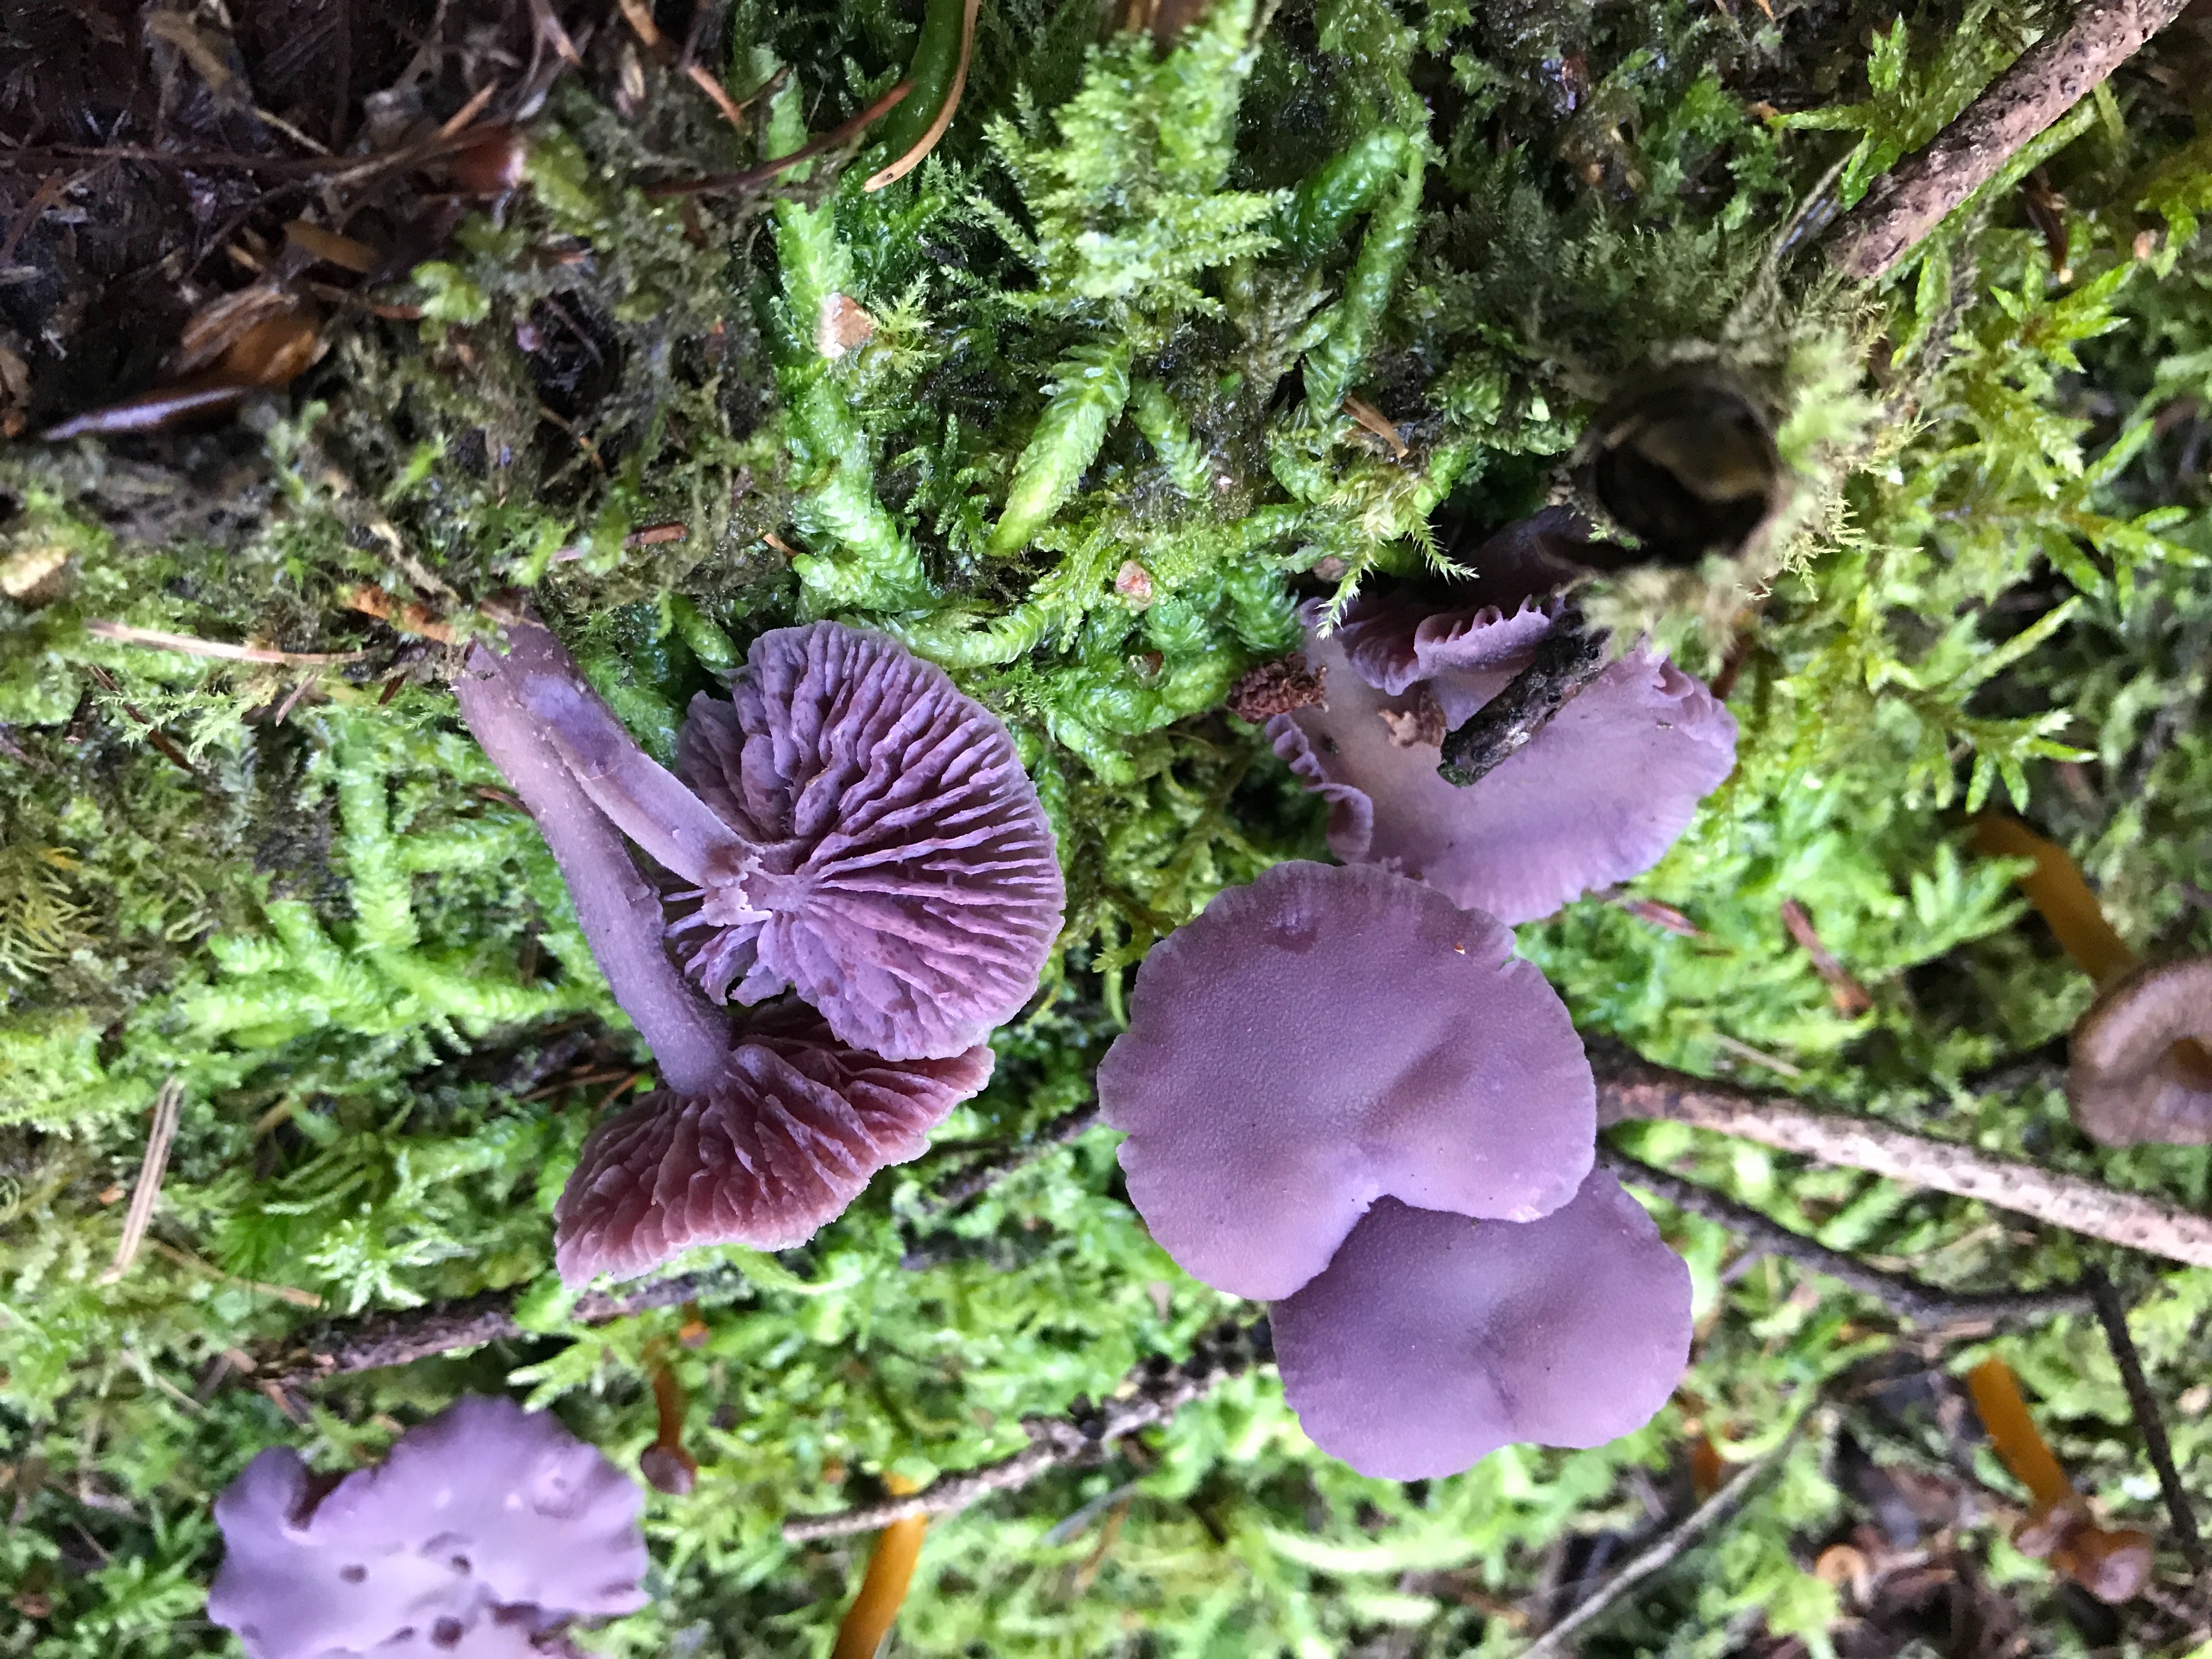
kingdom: Fungi
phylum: Basidiomycota
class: Agaricomycetes
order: Agaricales
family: Hydnangiaceae
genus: Laccaria
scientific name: Laccaria amethystina
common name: violet ametysthat
